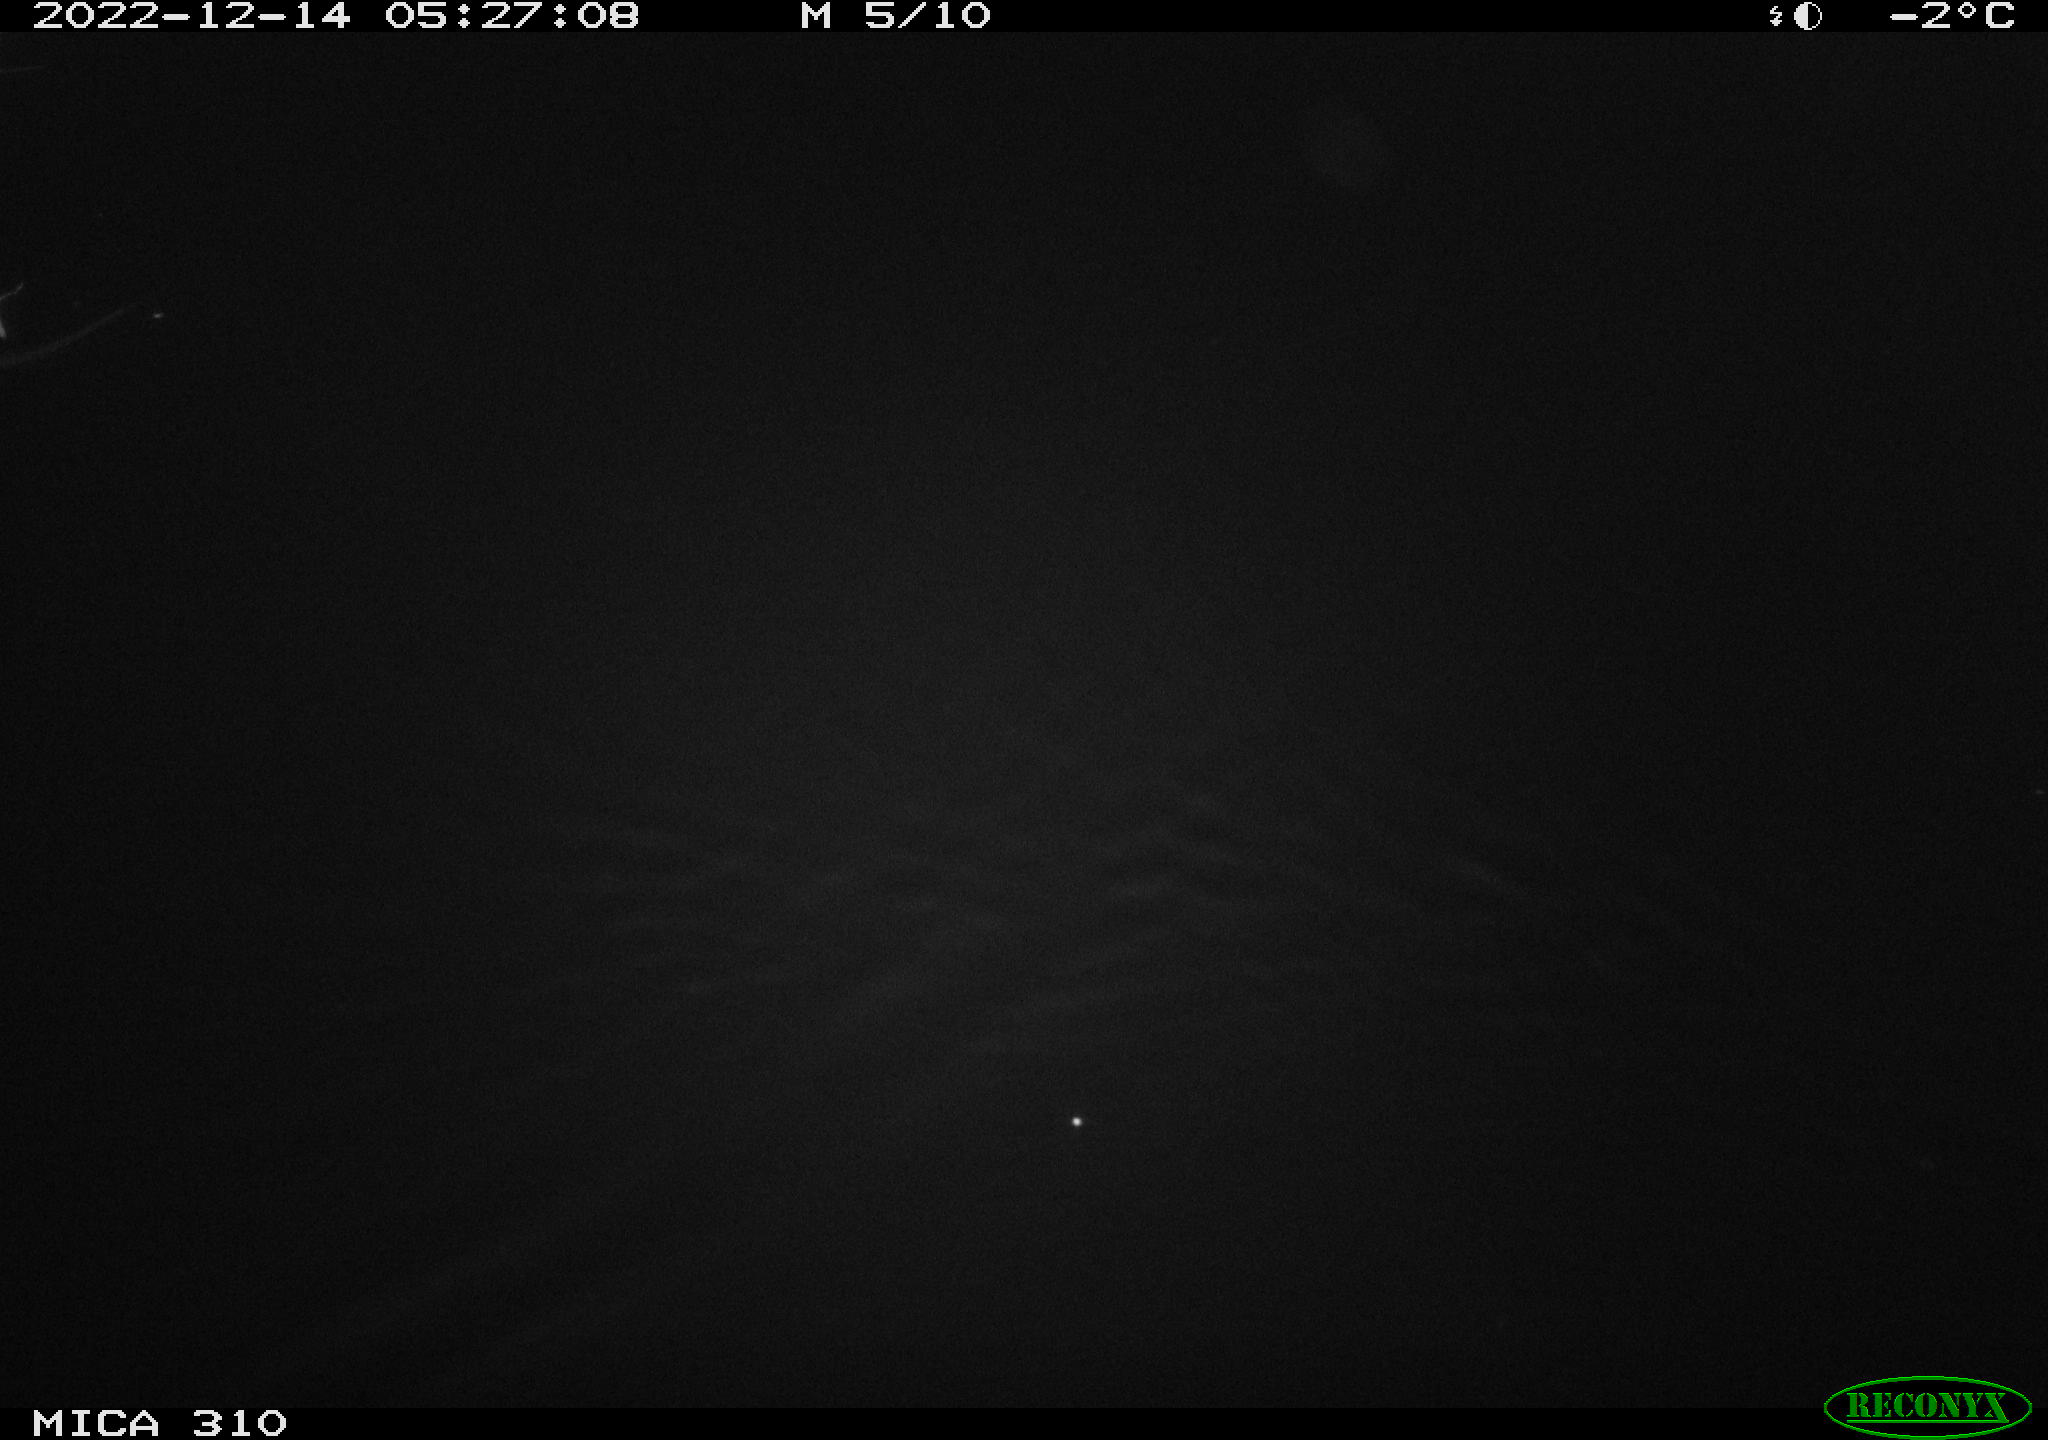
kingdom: Animalia
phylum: Chordata
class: Mammalia
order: Rodentia
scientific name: Rodentia
